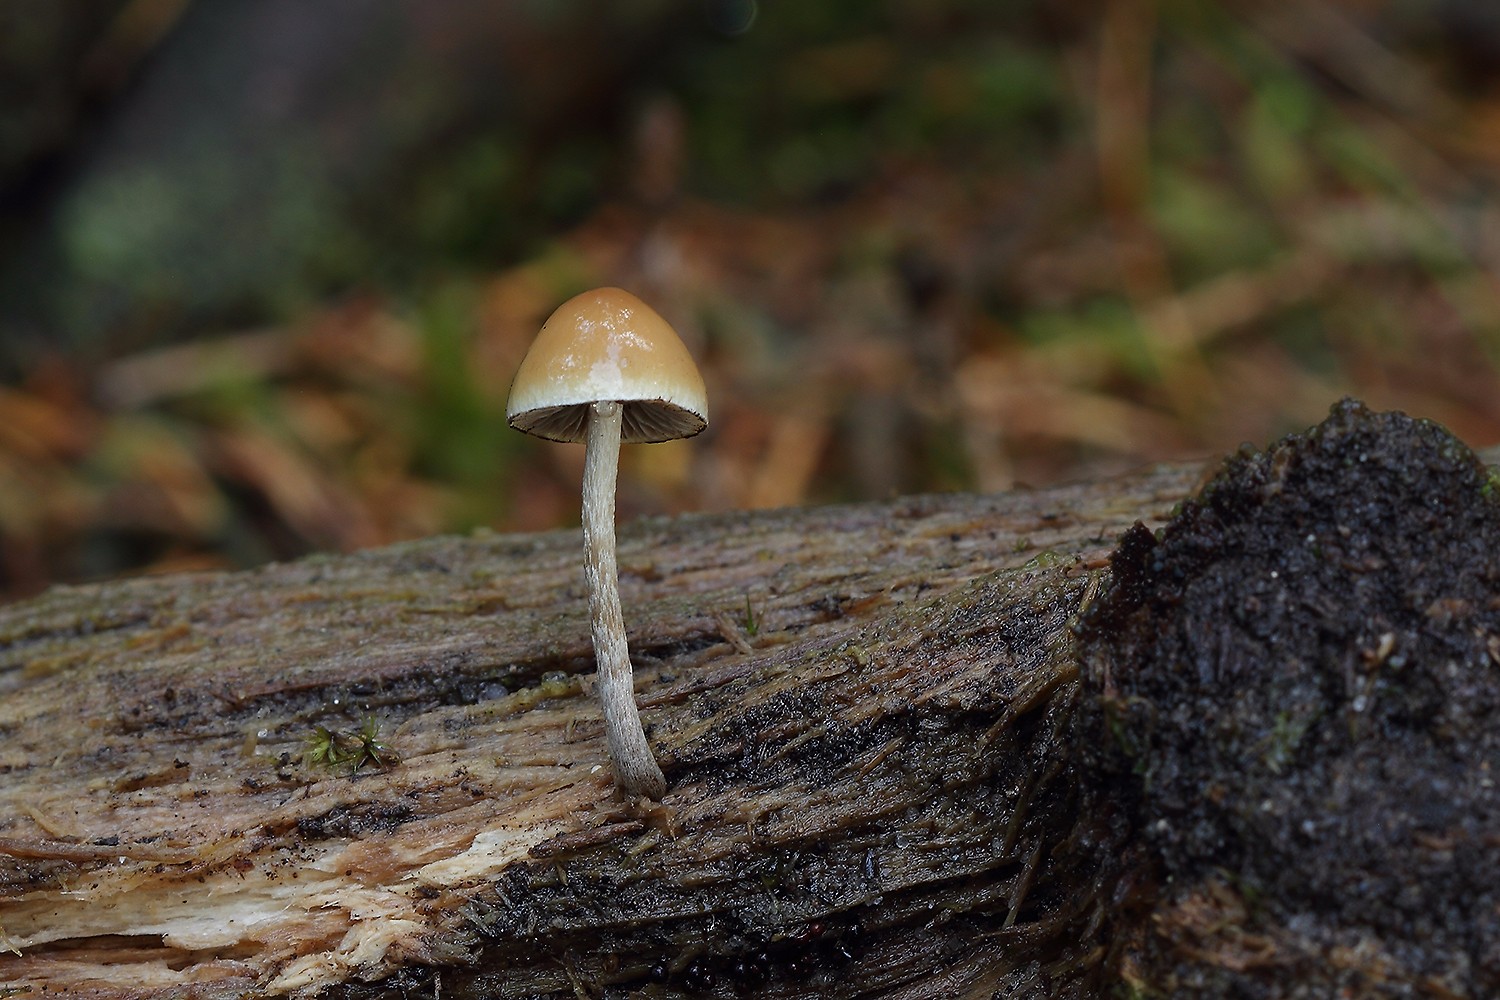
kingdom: Fungi
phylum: Basidiomycota
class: Agaricomycetes
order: Agaricales
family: Strophariaceae
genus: Hypholoma
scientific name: Hypholoma marginatum
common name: enlig svovlhat
